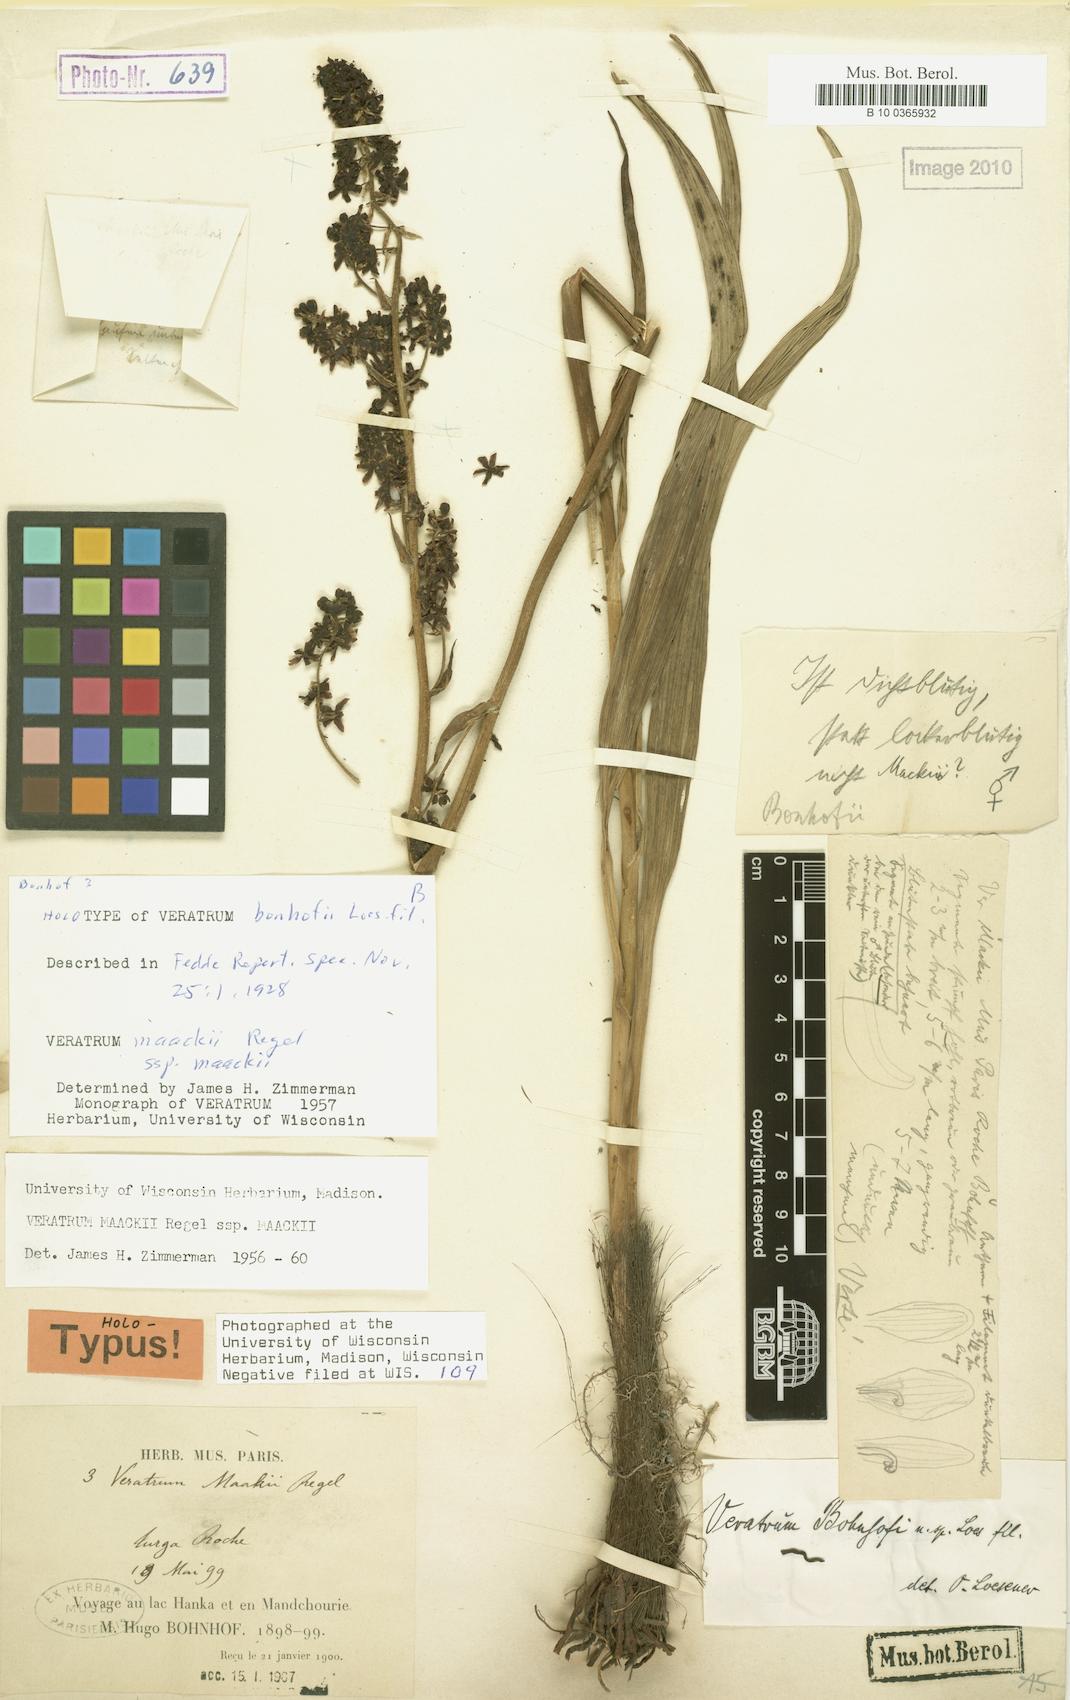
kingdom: Plantae
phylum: Tracheophyta
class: Liliopsida
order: Liliales
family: Melanthiaceae
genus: Veratrum
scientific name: Veratrum maackii
